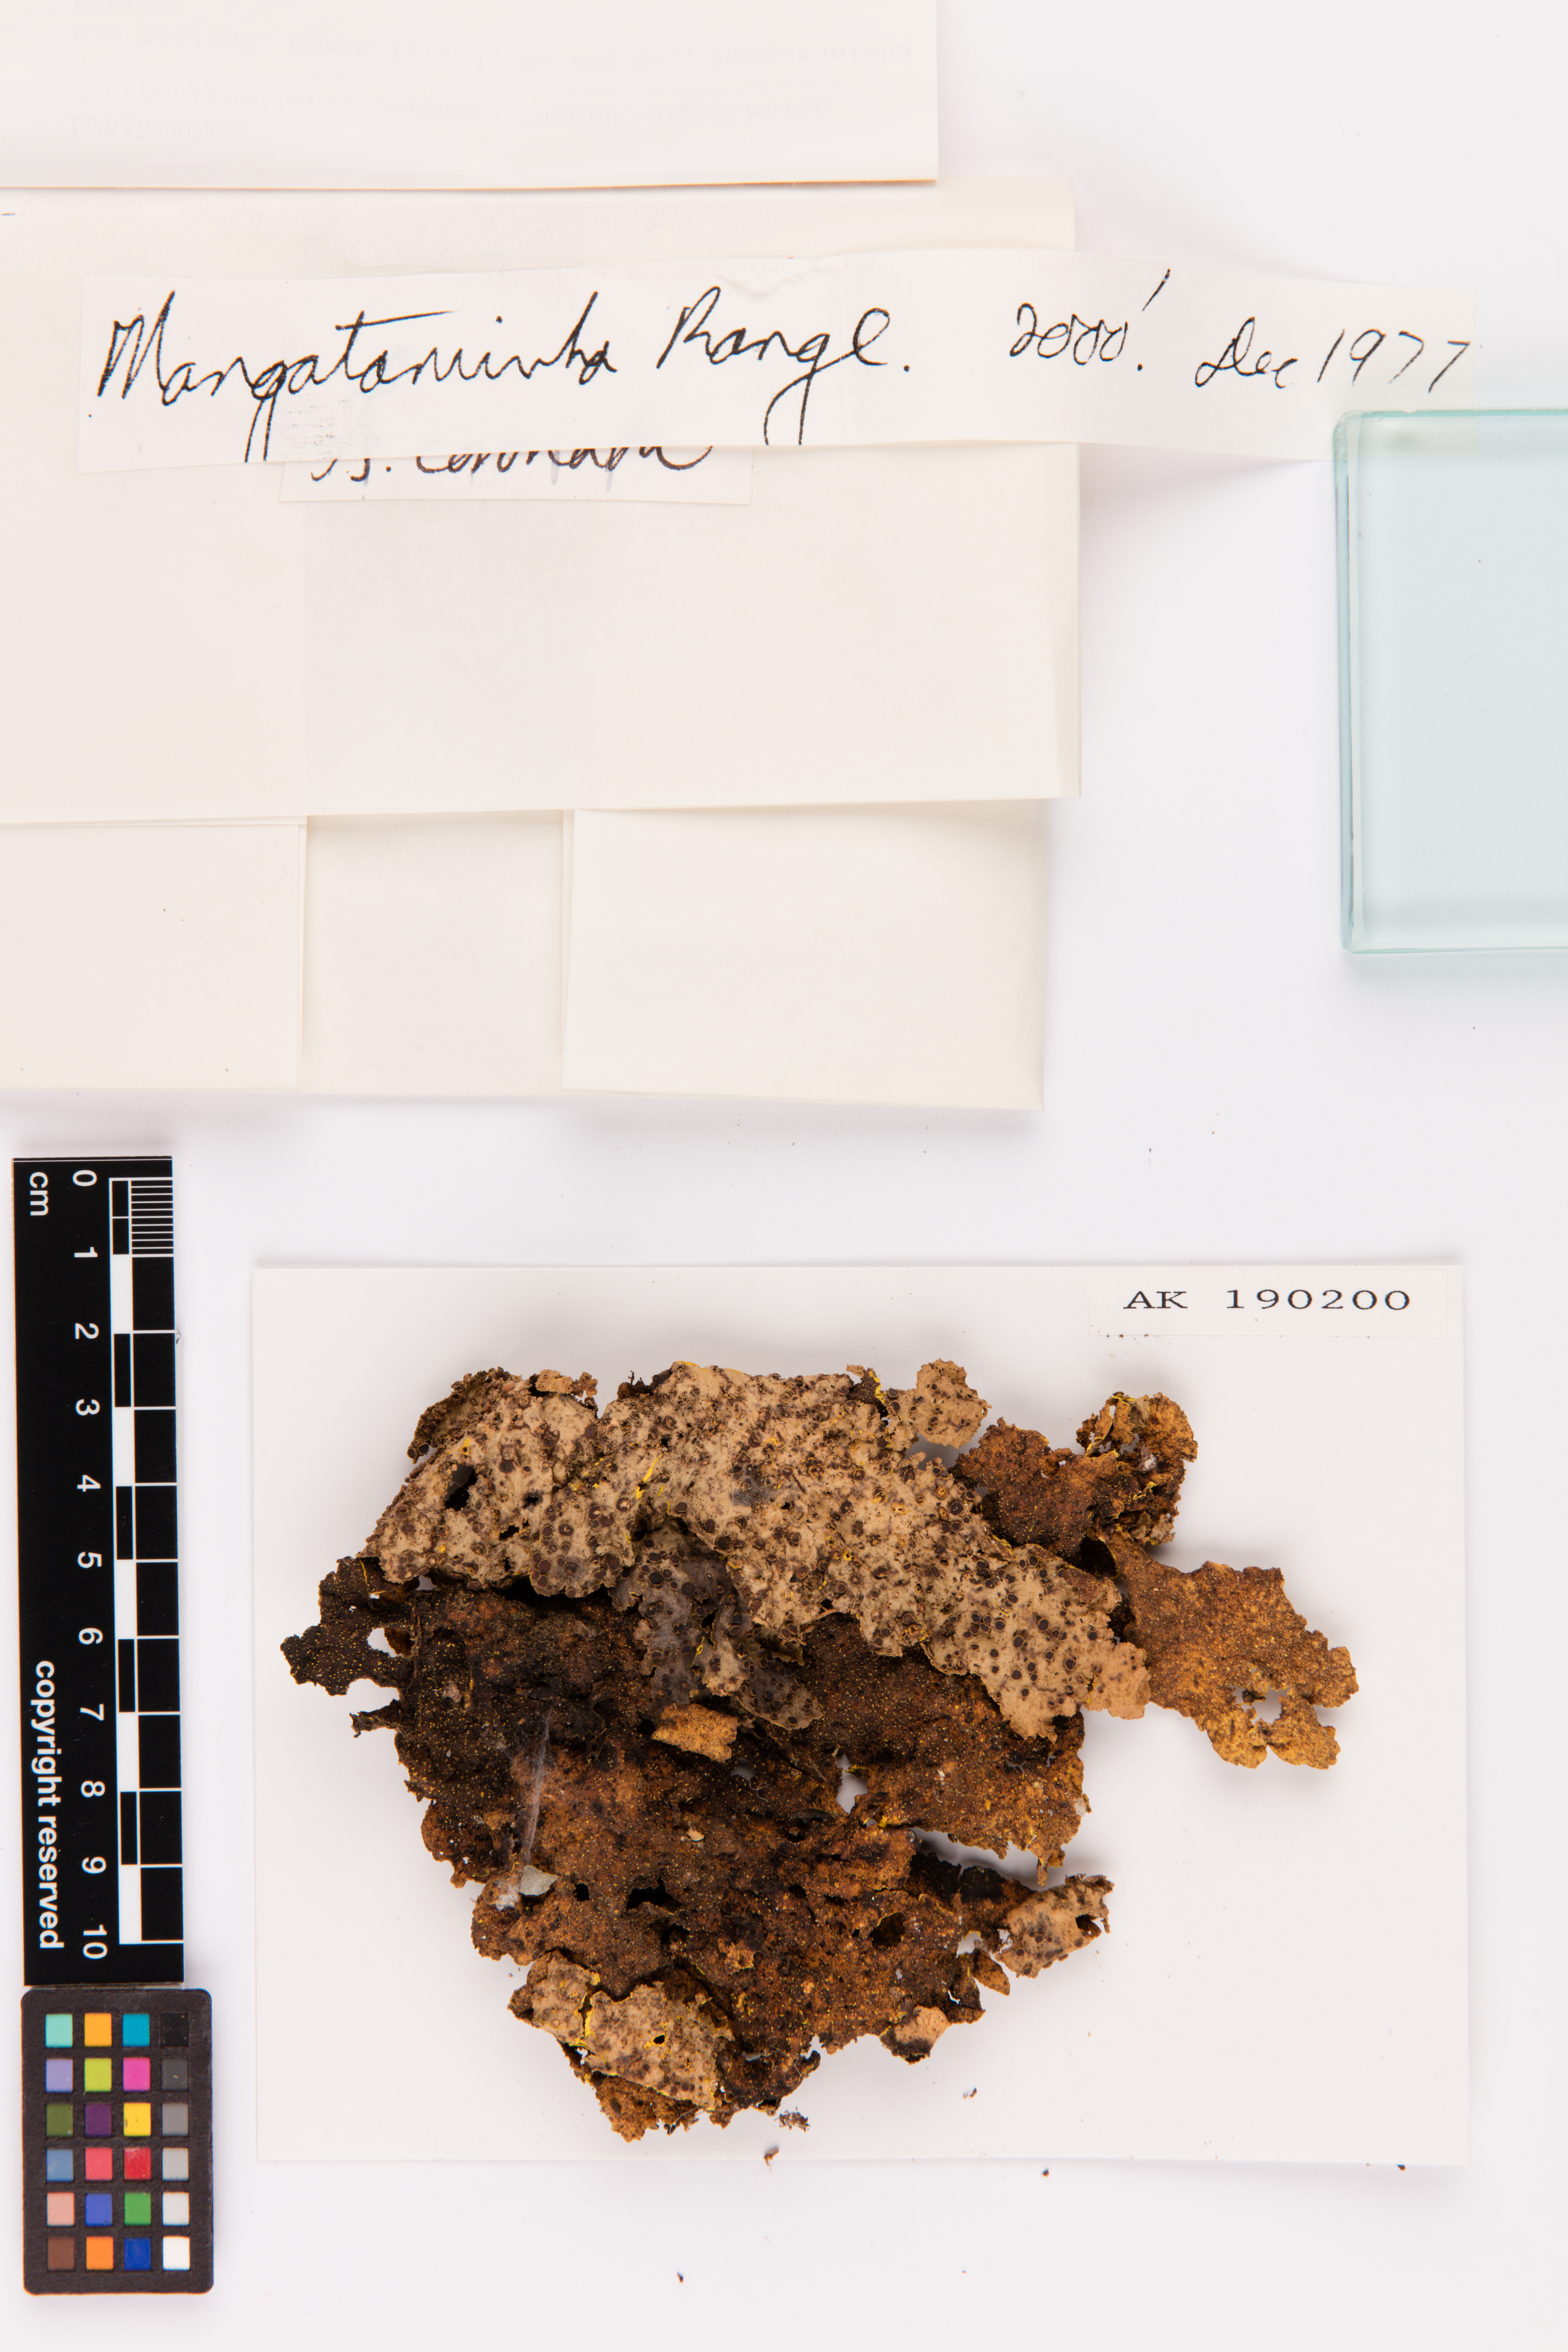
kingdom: Fungi
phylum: Ascomycota
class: Lecanoromycetes
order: Peltigerales
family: Lobariaceae
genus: Yarrumia
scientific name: Yarrumia coronata
